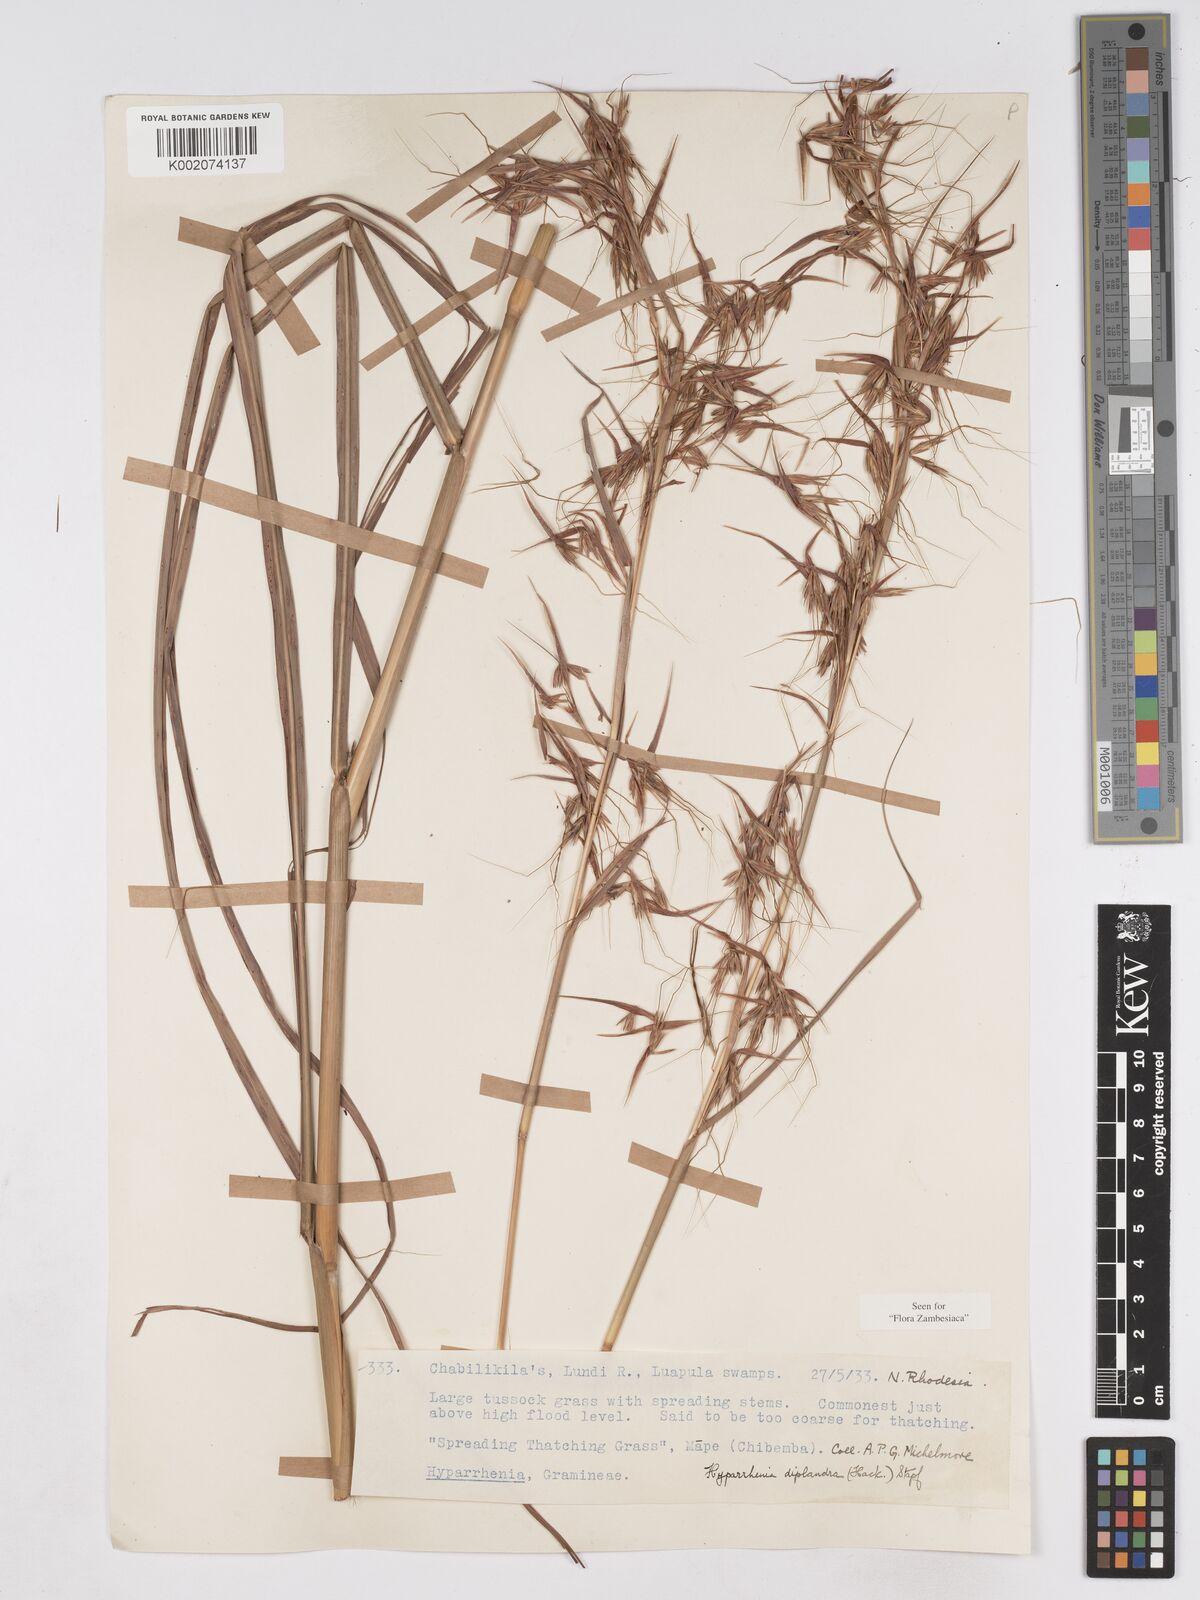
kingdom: Plantae
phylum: Tracheophyta
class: Liliopsida
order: Poales
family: Poaceae
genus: Hyparrhenia
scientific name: Hyparrhenia diplandra
